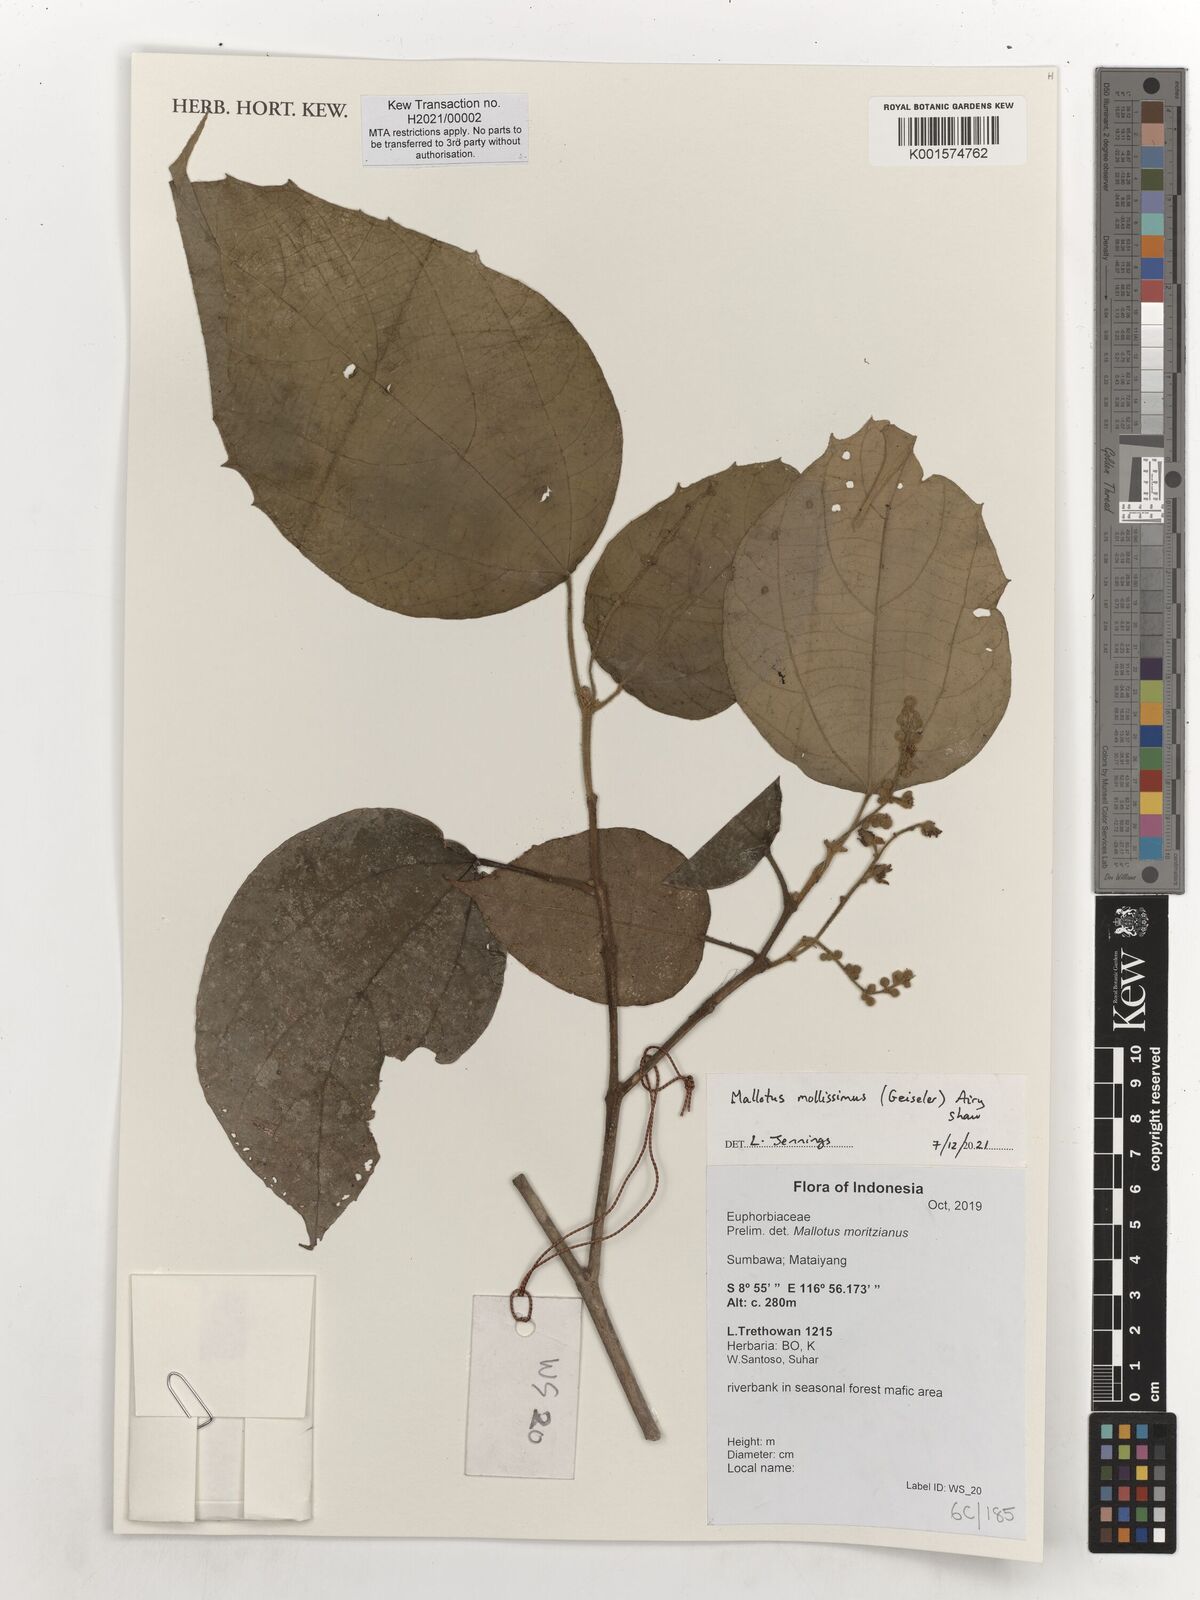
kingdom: Plantae
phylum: Tracheophyta
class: Magnoliopsida
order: Malpighiales
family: Euphorbiaceae
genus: Mallotus
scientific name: Mallotus mollissimus
